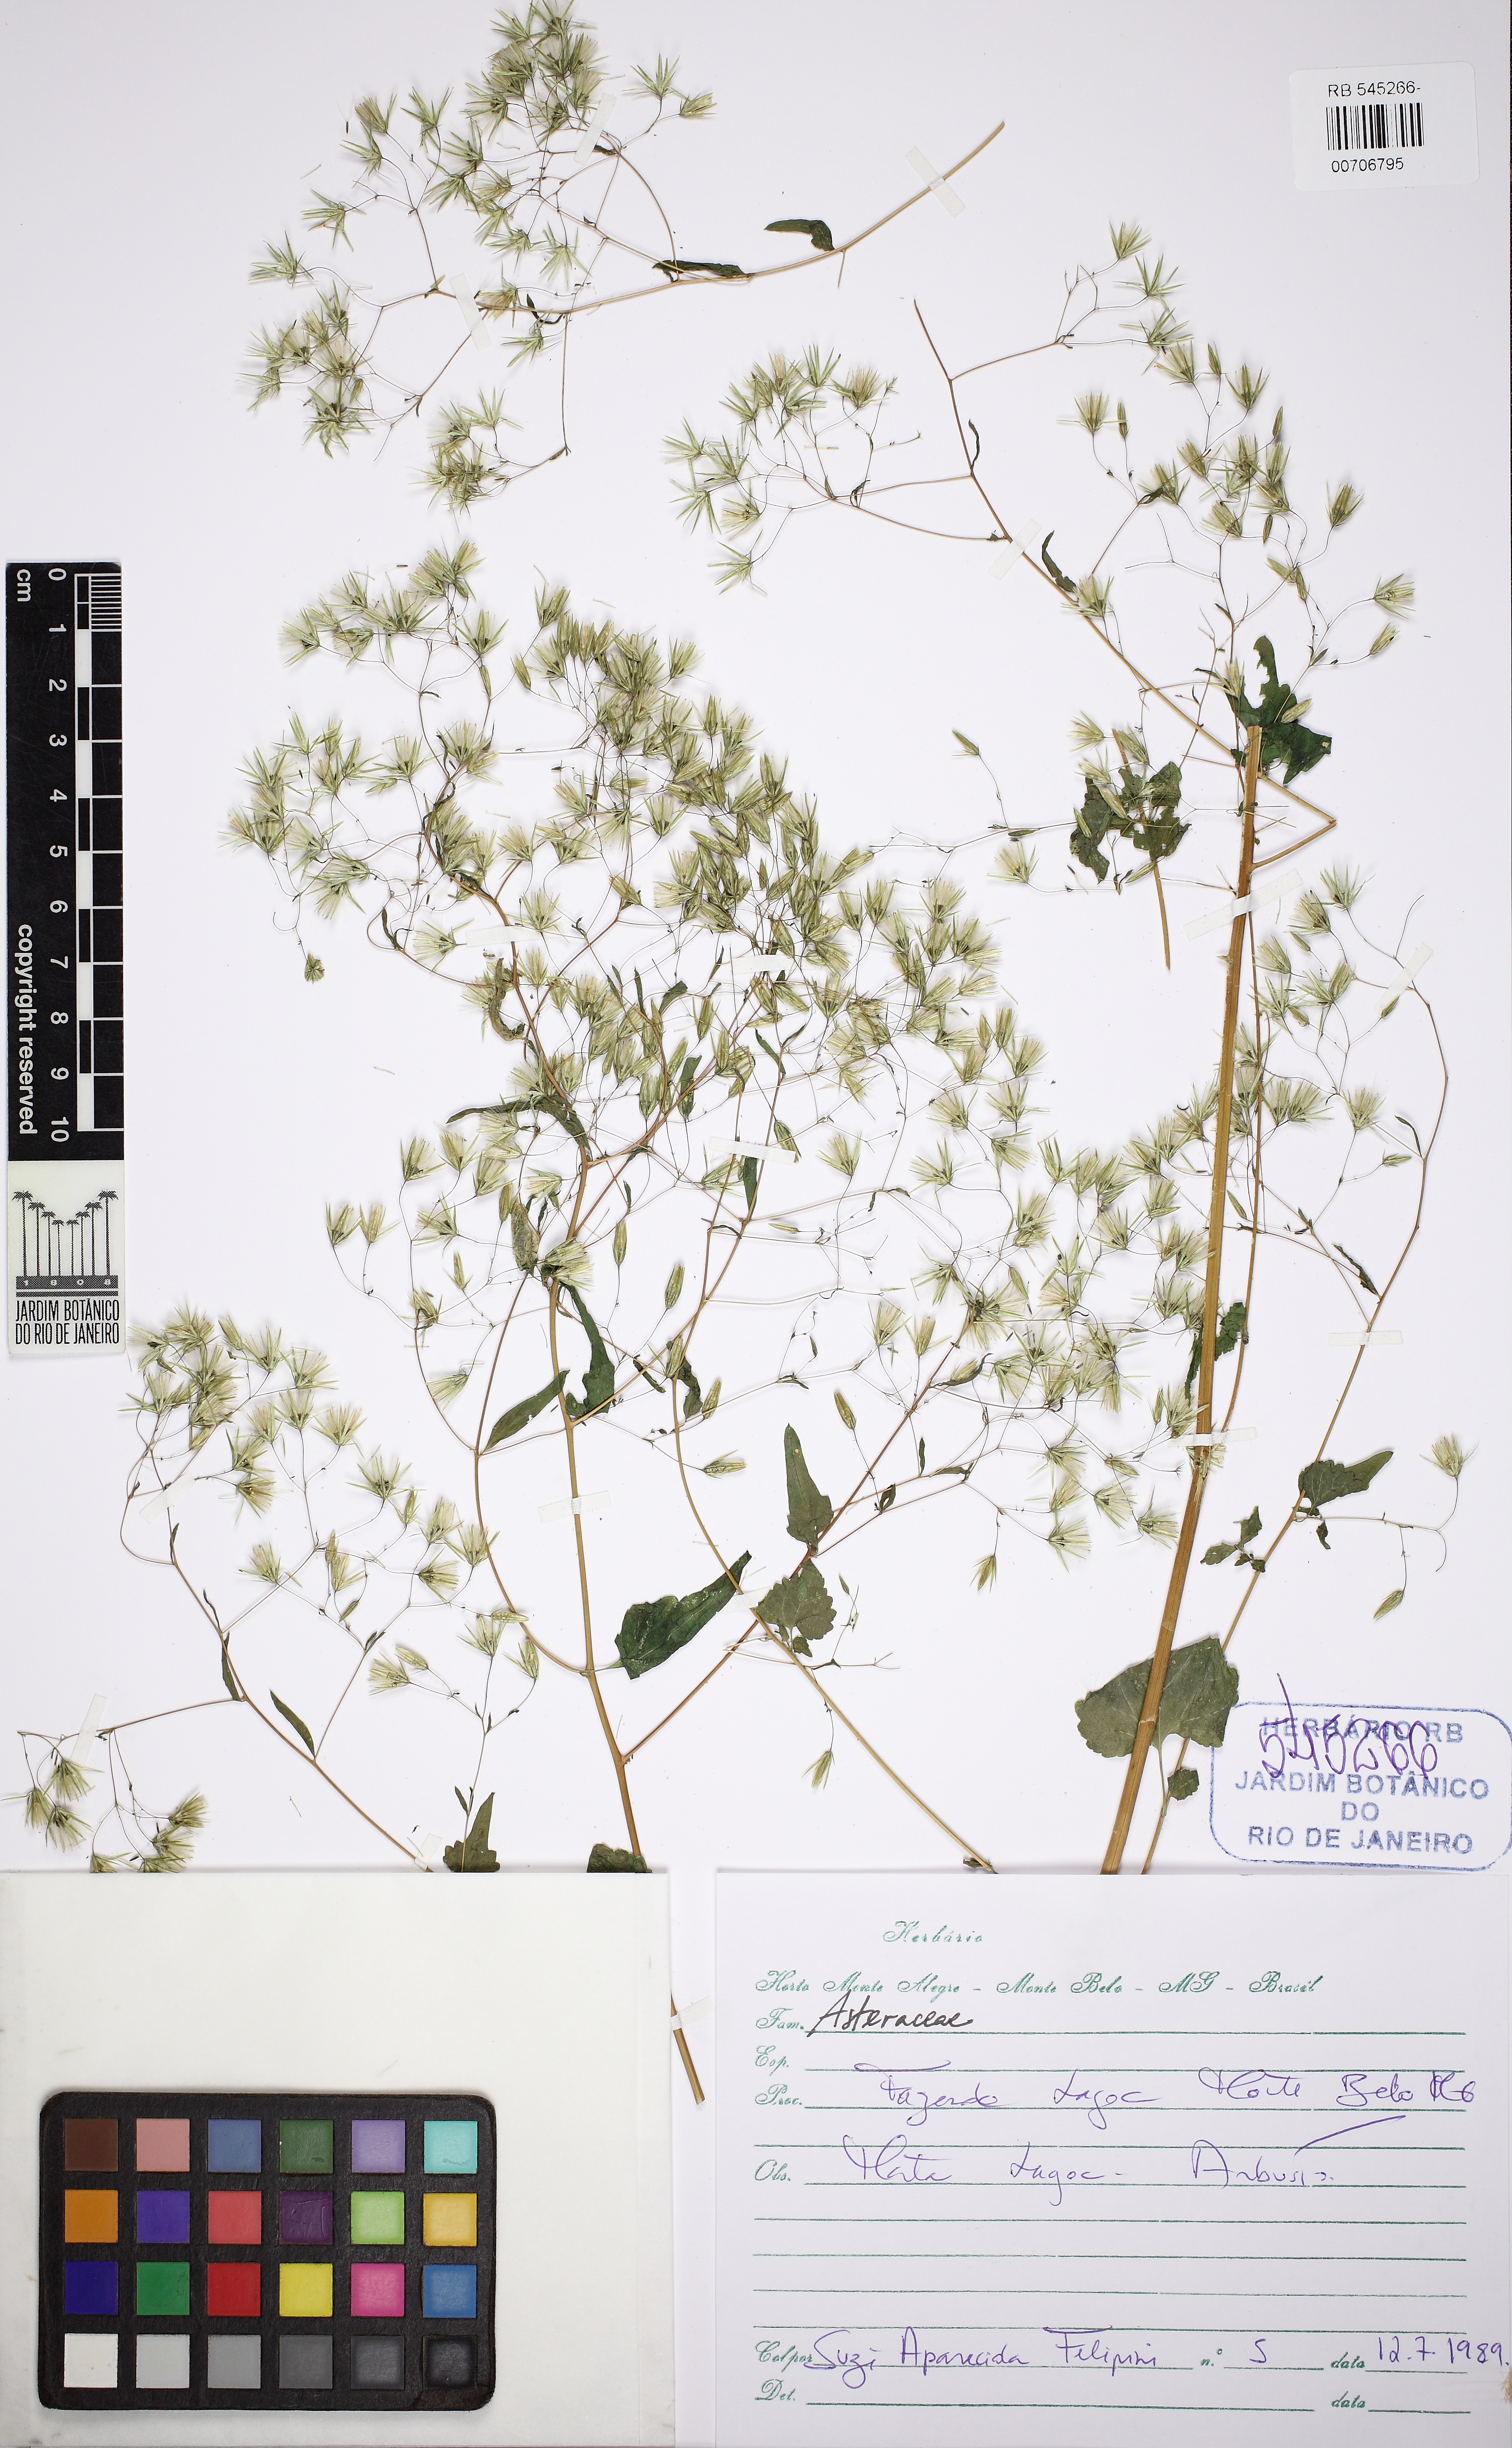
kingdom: Plantae
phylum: Tracheophyta
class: Magnoliopsida
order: Asterales
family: Asteraceae
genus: Fleischmannia
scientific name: Fleischmannia laxa
